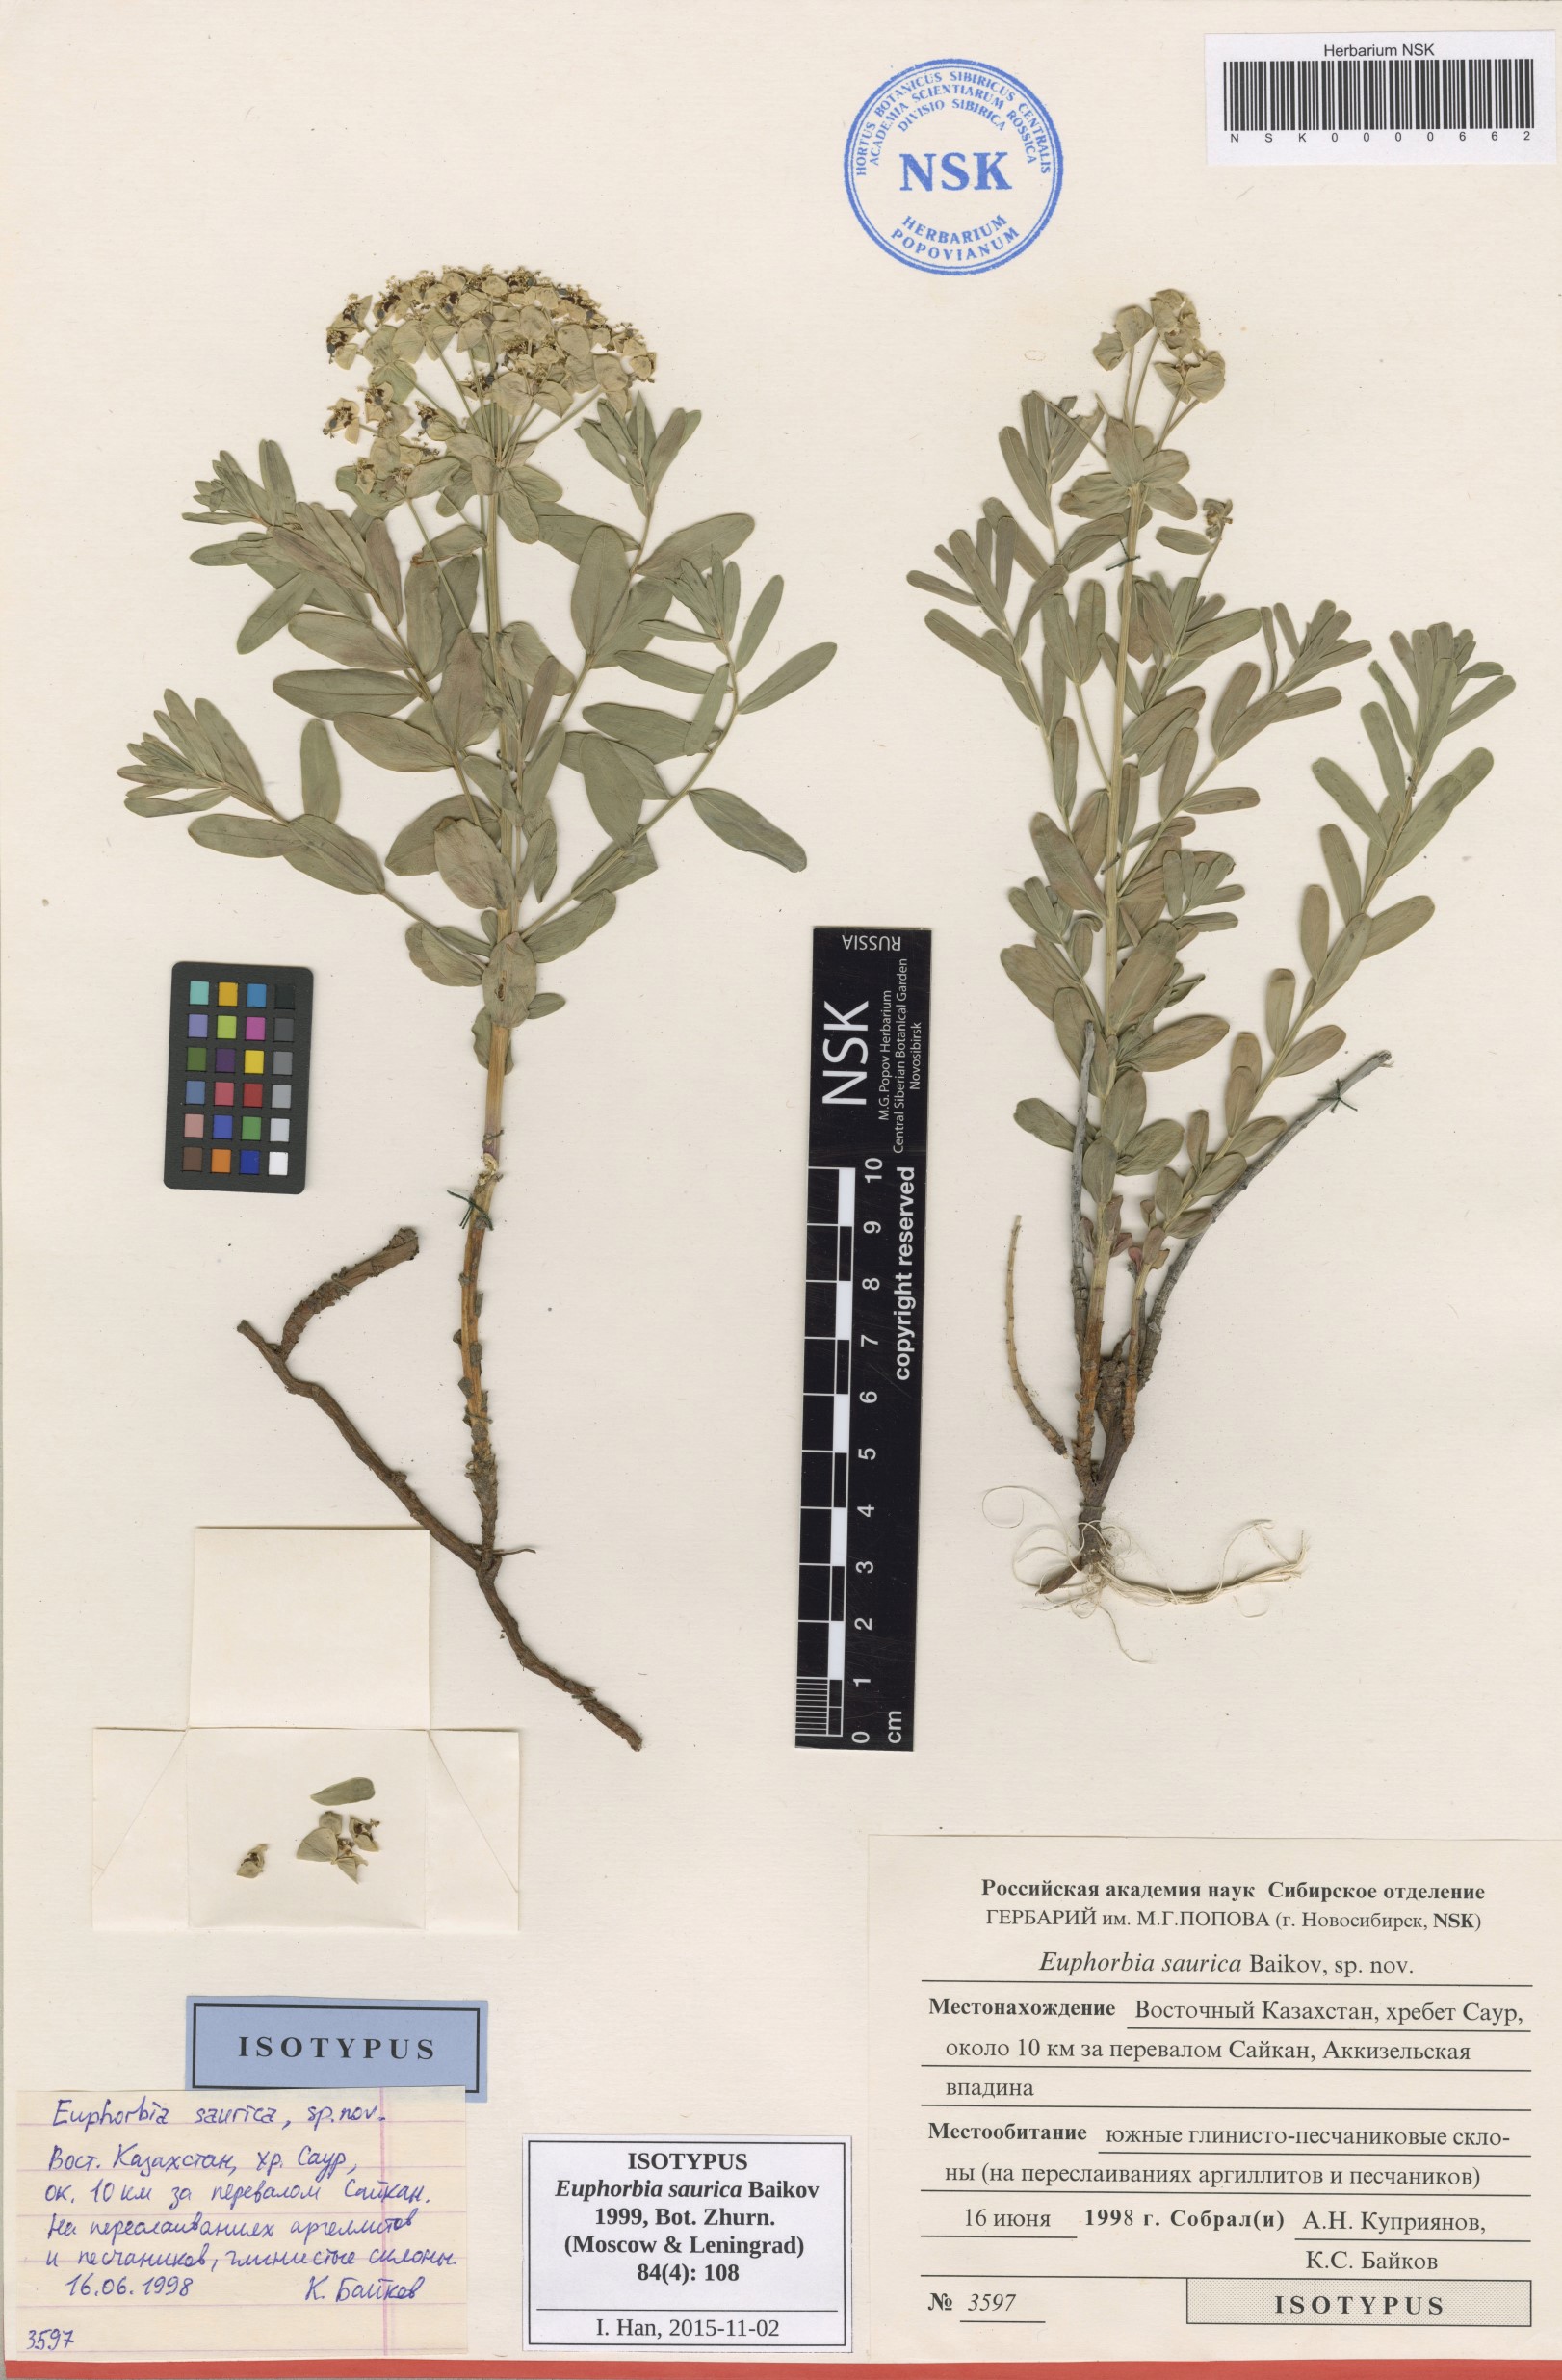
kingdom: Plantae
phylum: Tracheophyta
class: Magnoliopsida
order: Malpighiales
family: Euphorbiaceae
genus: Euphorbia
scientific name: Euphorbia saurica
